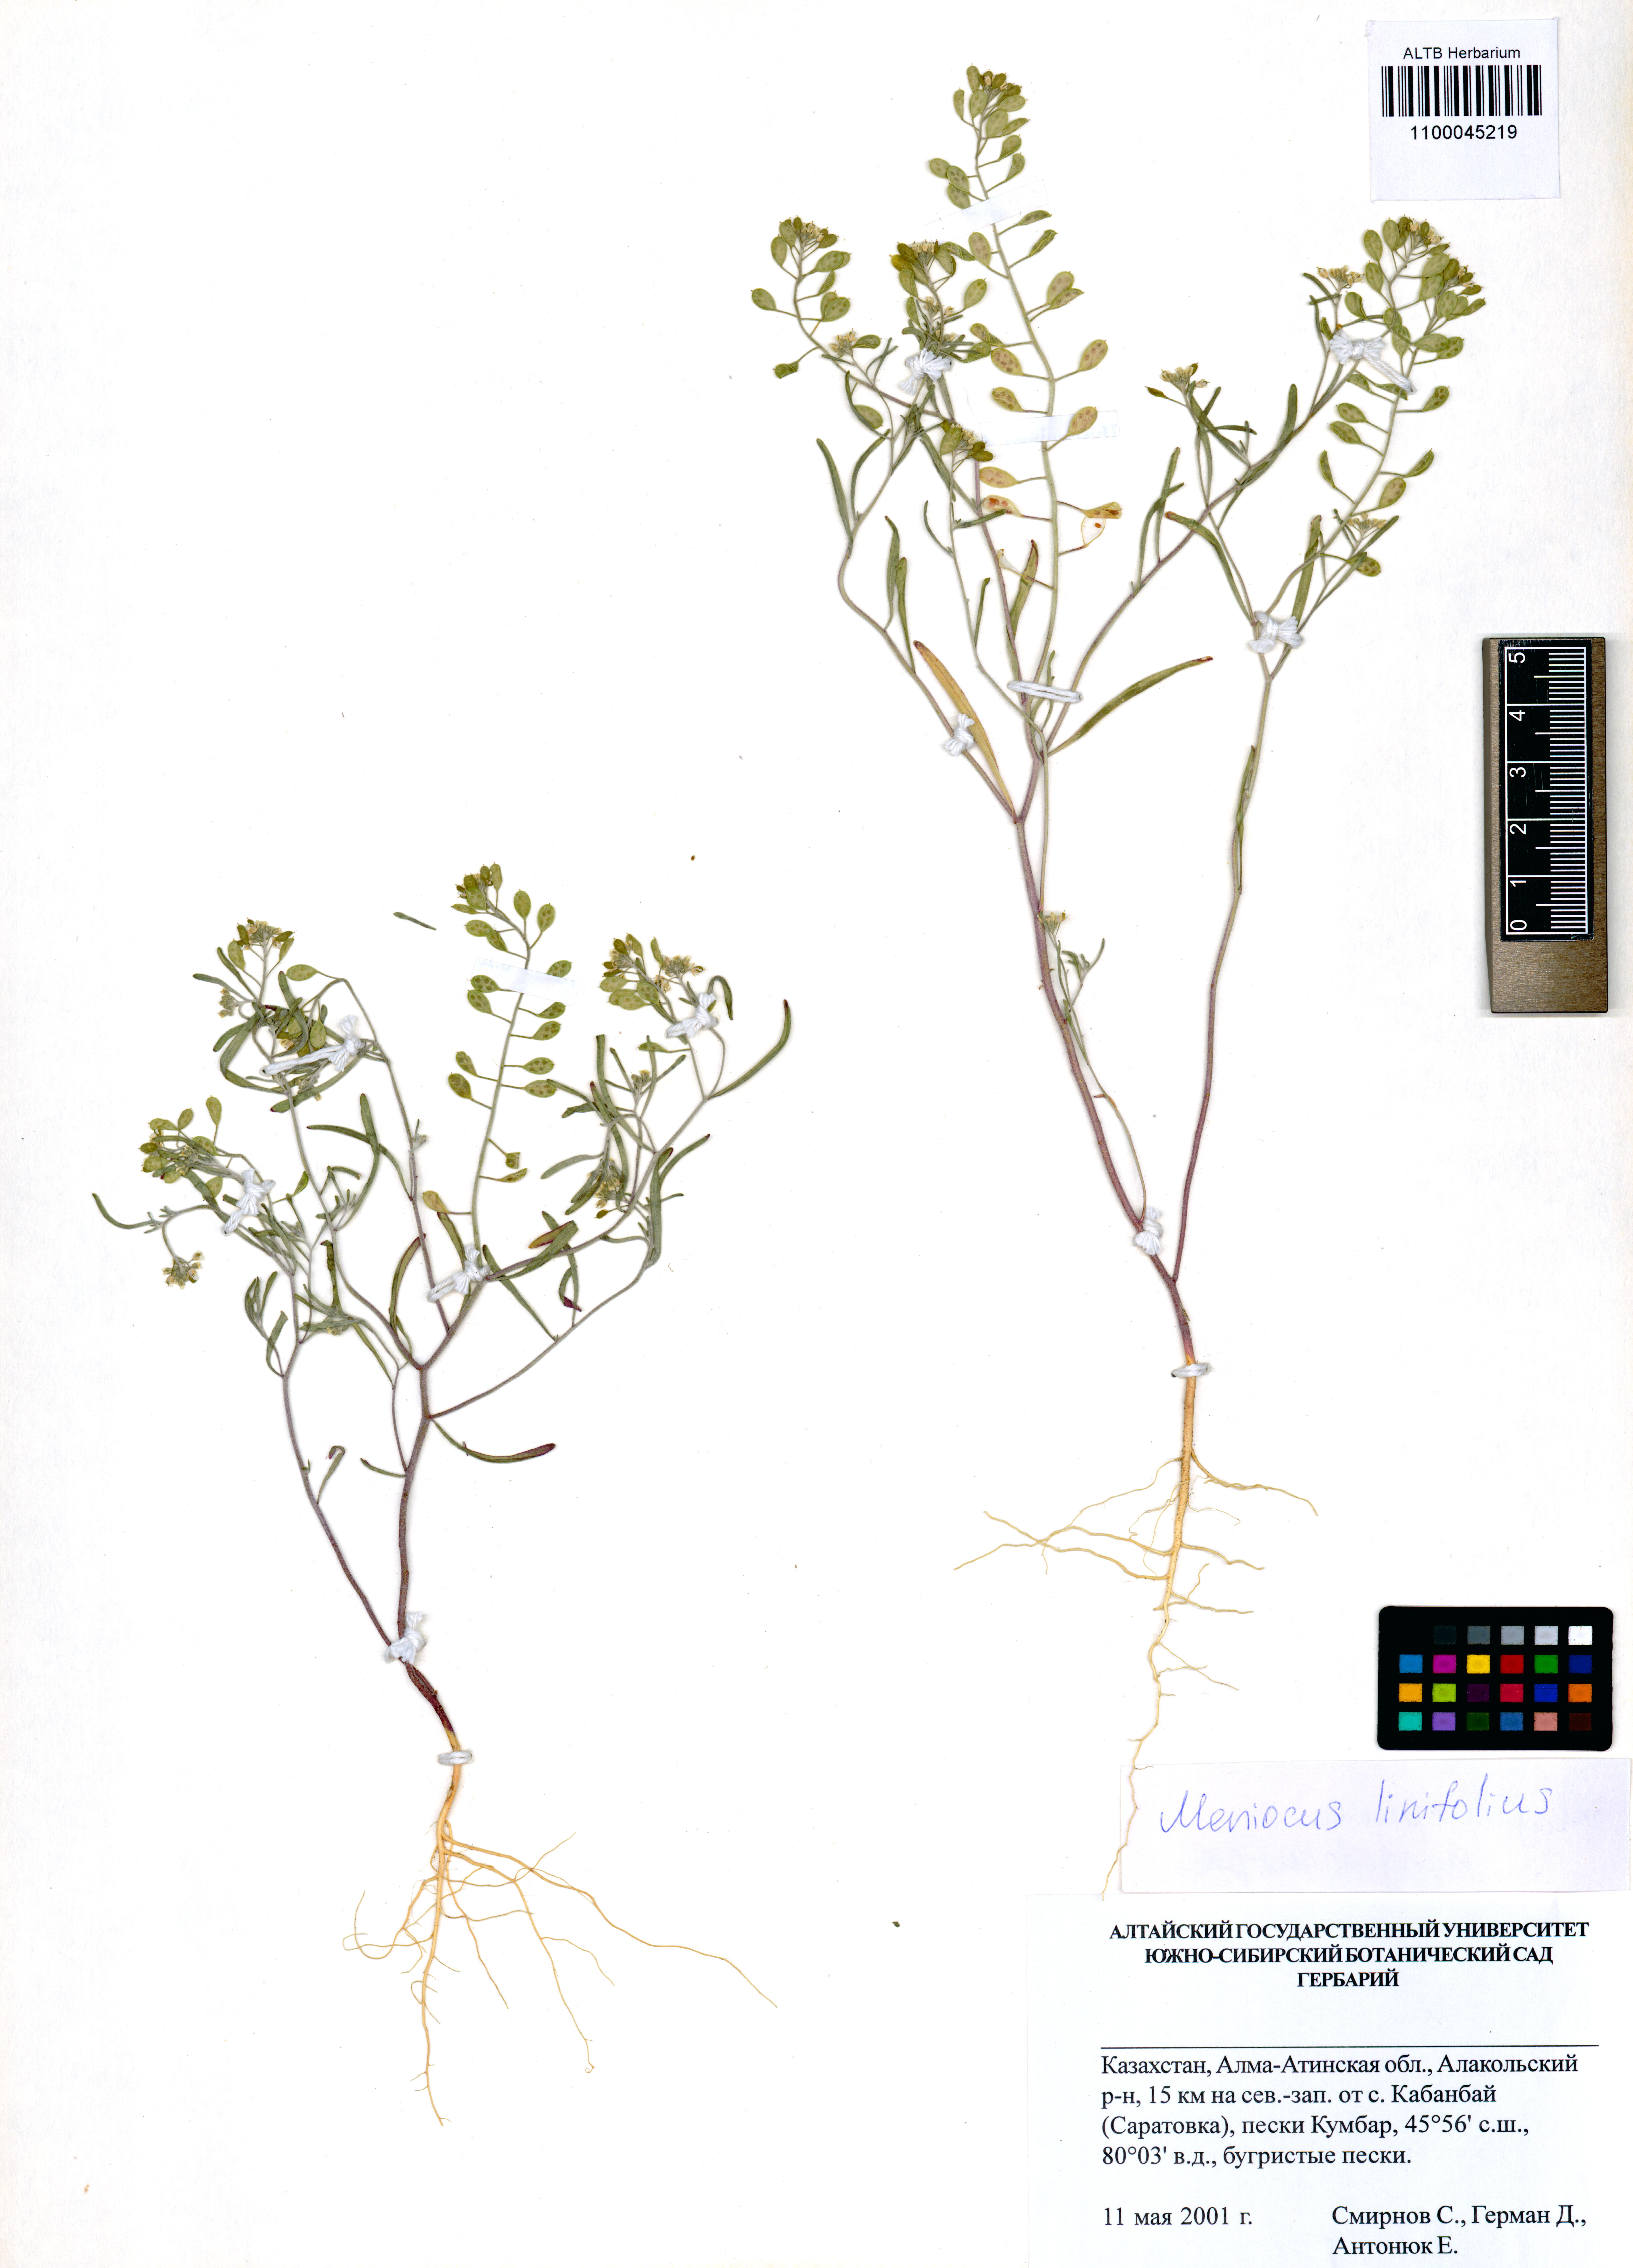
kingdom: Plantae
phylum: Tracheophyta
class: Magnoliopsida
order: Brassicales
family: Brassicaceae
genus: Meniocus
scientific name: Meniocus linifolius
